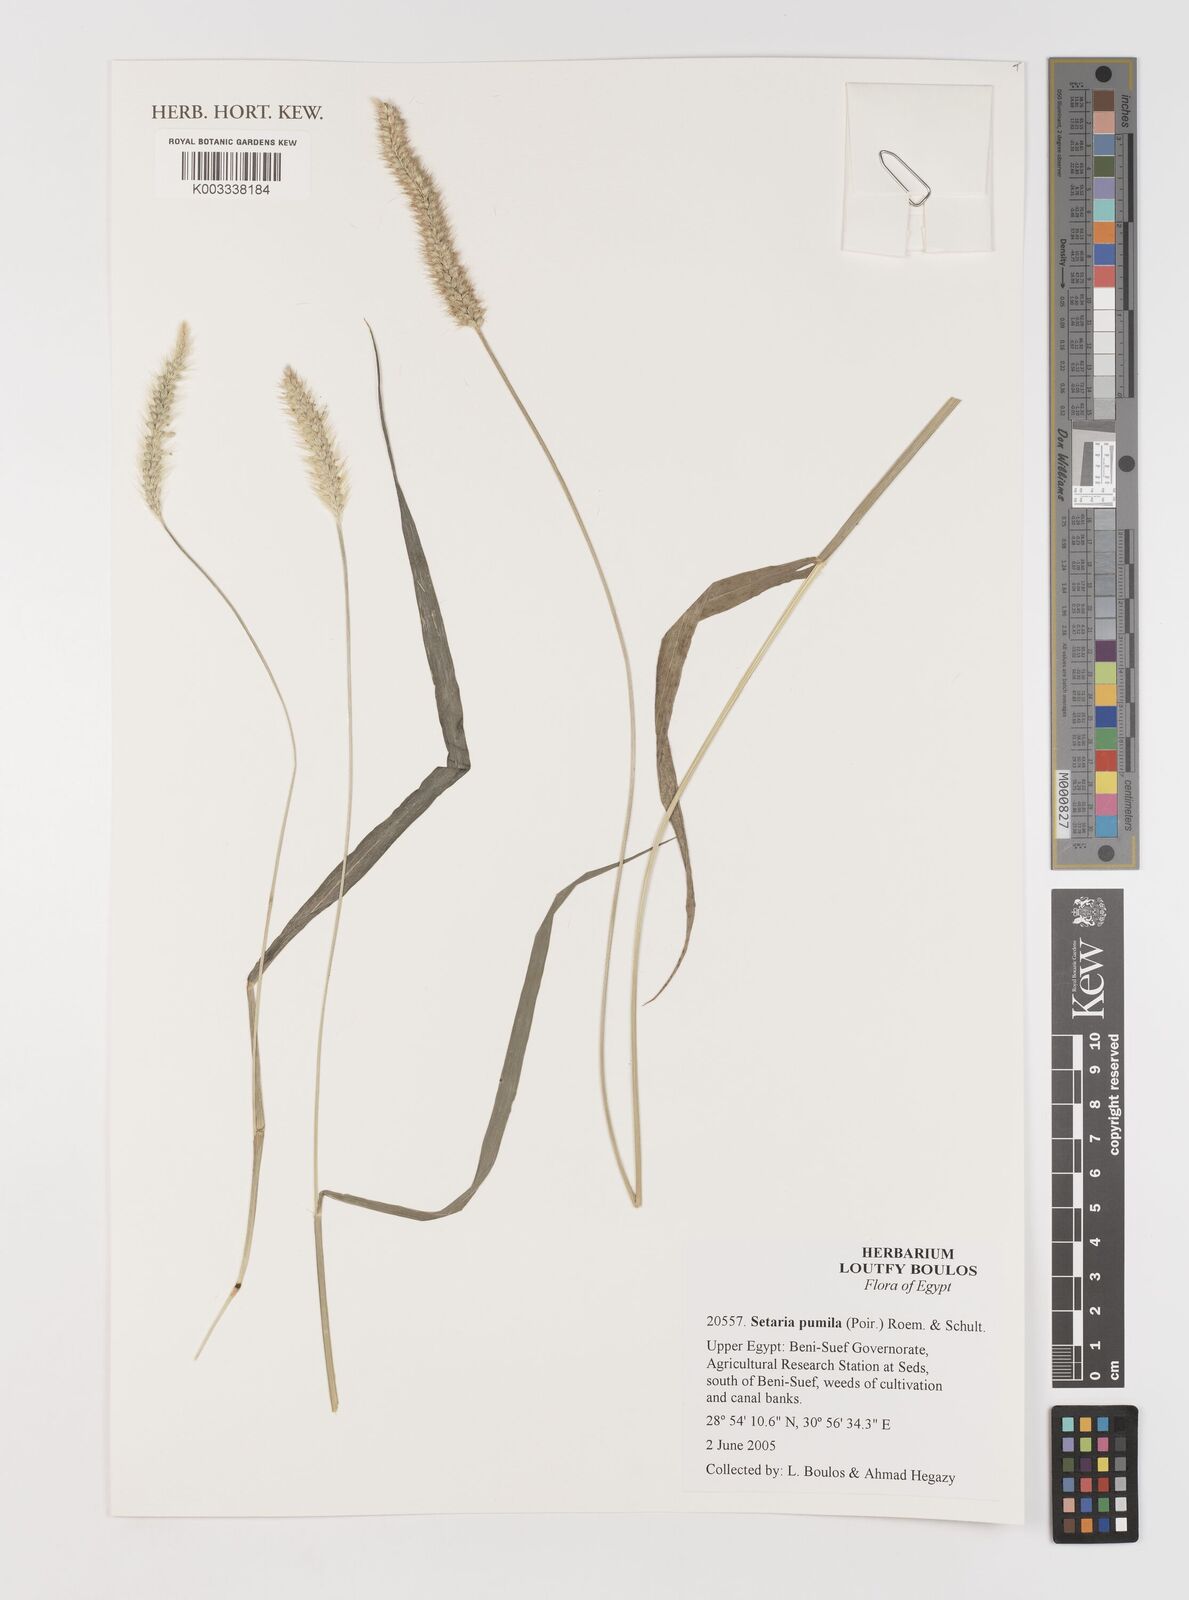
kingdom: Plantae
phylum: Tracheophyta
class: Liliopsida
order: Poales
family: Poaceae
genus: Setaria
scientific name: Setaria pumila
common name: Yellow bristle-grass
